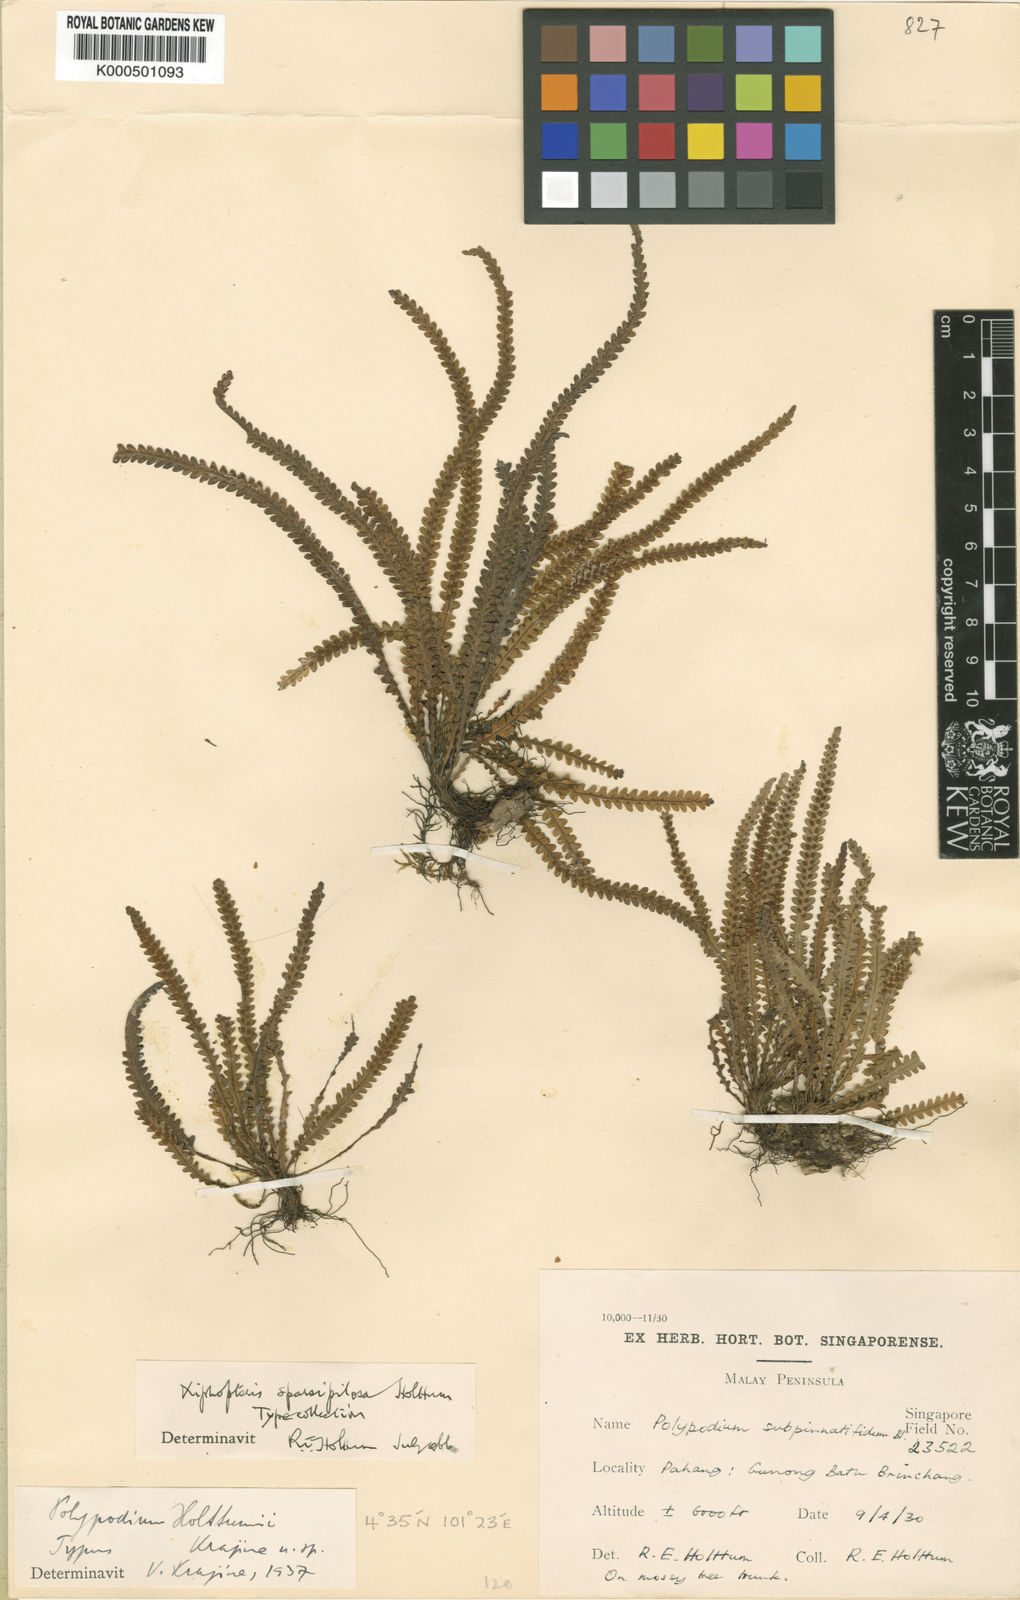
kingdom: Plantae
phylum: Tracheophyta
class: Polypodiopsida
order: Polypodiales
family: Polypodiaceae
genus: Xiphopterella
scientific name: Xiphopterella sparsipilosa
